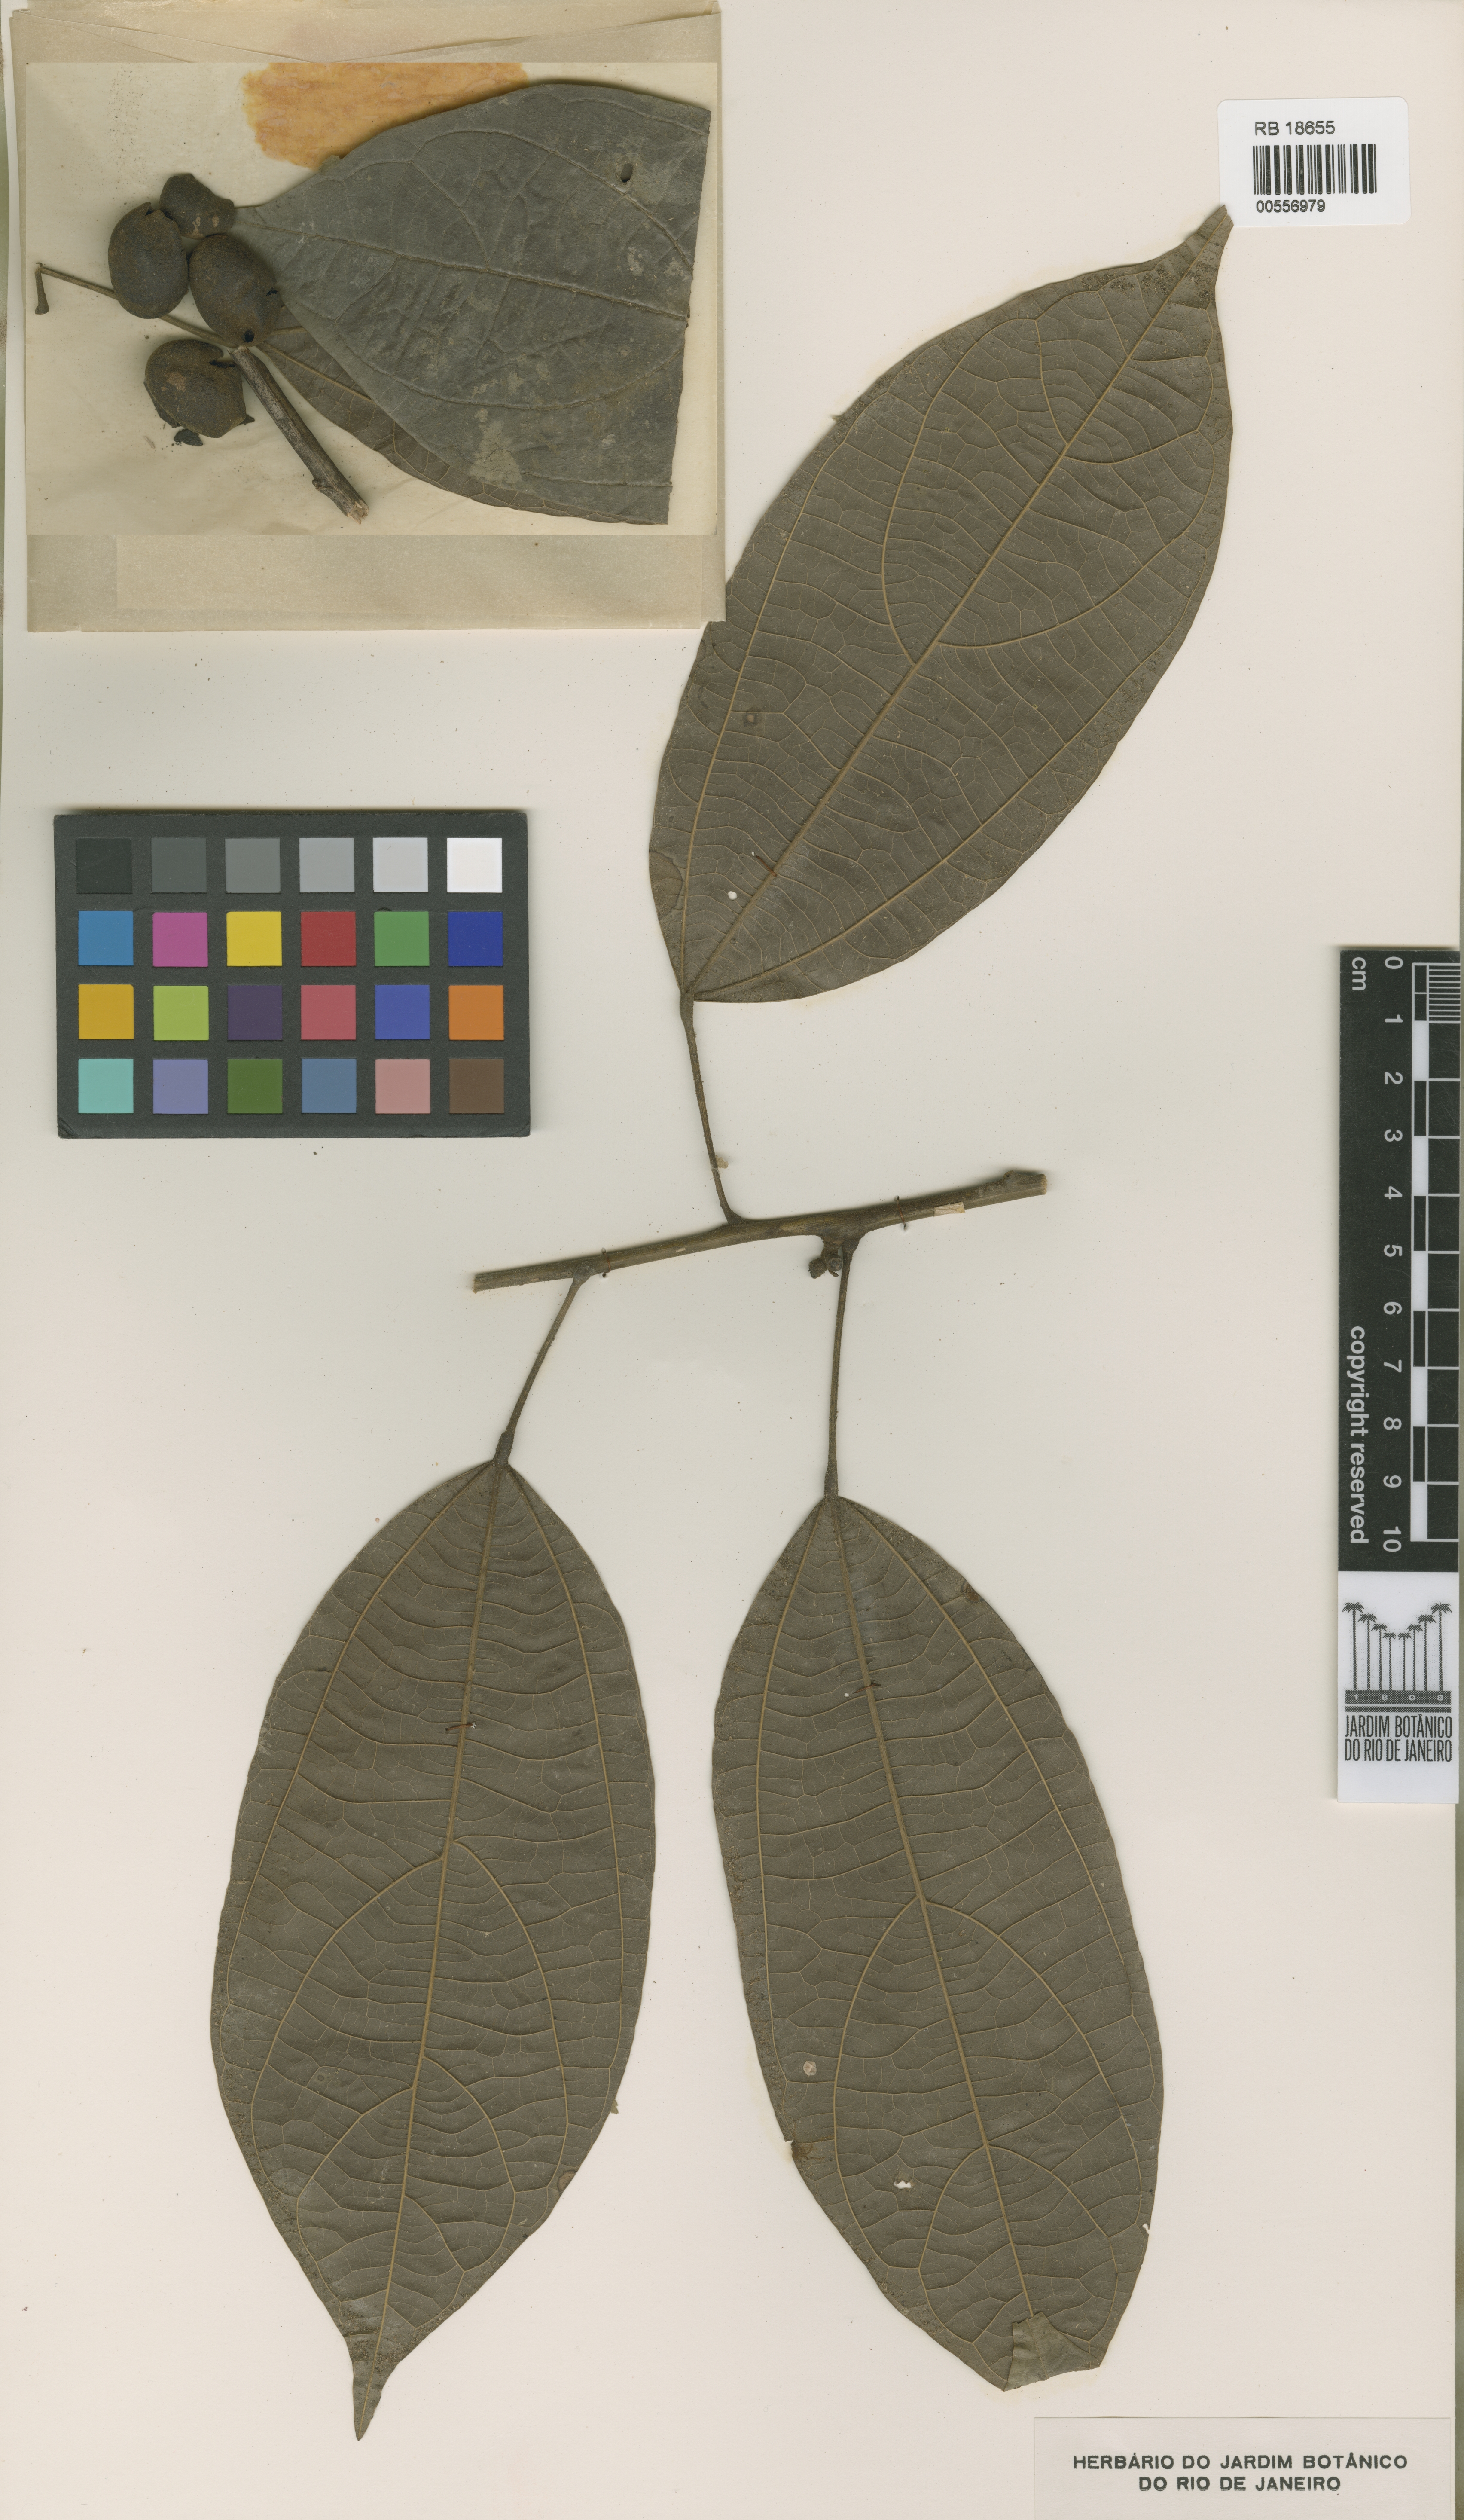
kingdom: Plantae
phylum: Tracheophyta
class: Magnoliopsida
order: Ranunculales
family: Menispermaceae
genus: Abuta
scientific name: Abuta sandwithiana
